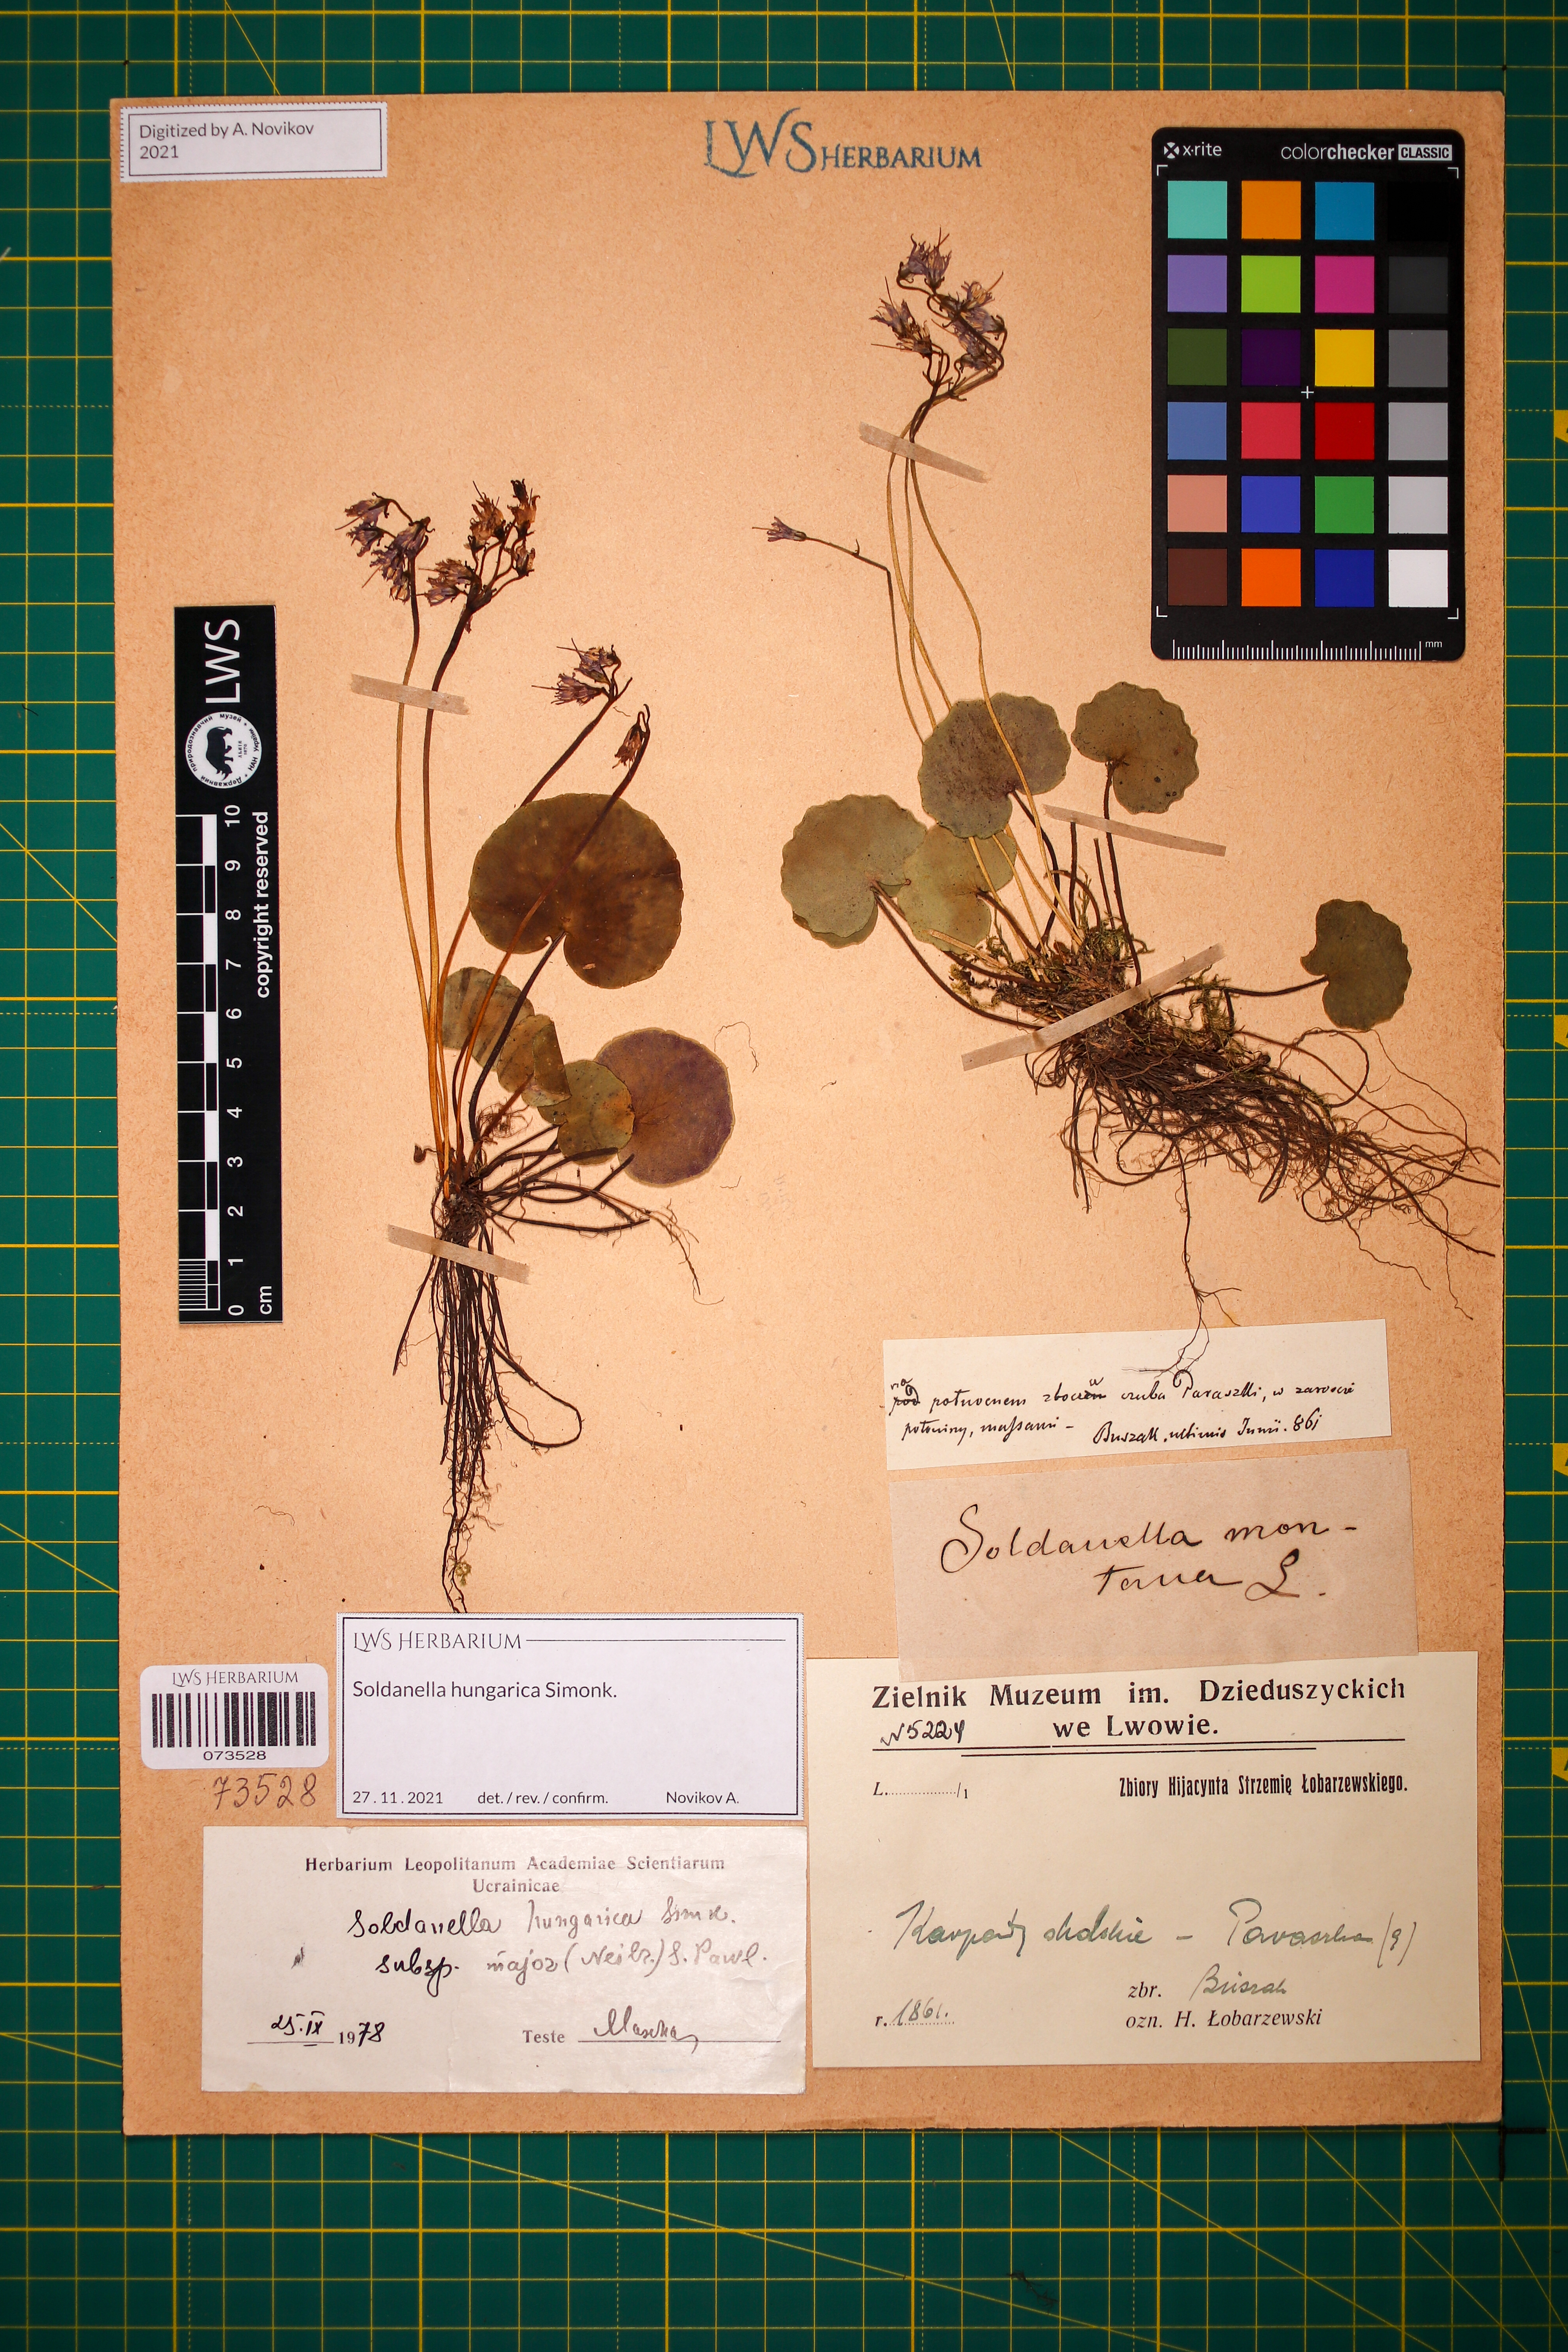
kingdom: Plantae
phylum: Tracheophyta
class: Magnoliopsida
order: Ericales
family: Primulaceae
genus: Soldanella
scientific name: Soldanella hungarica
